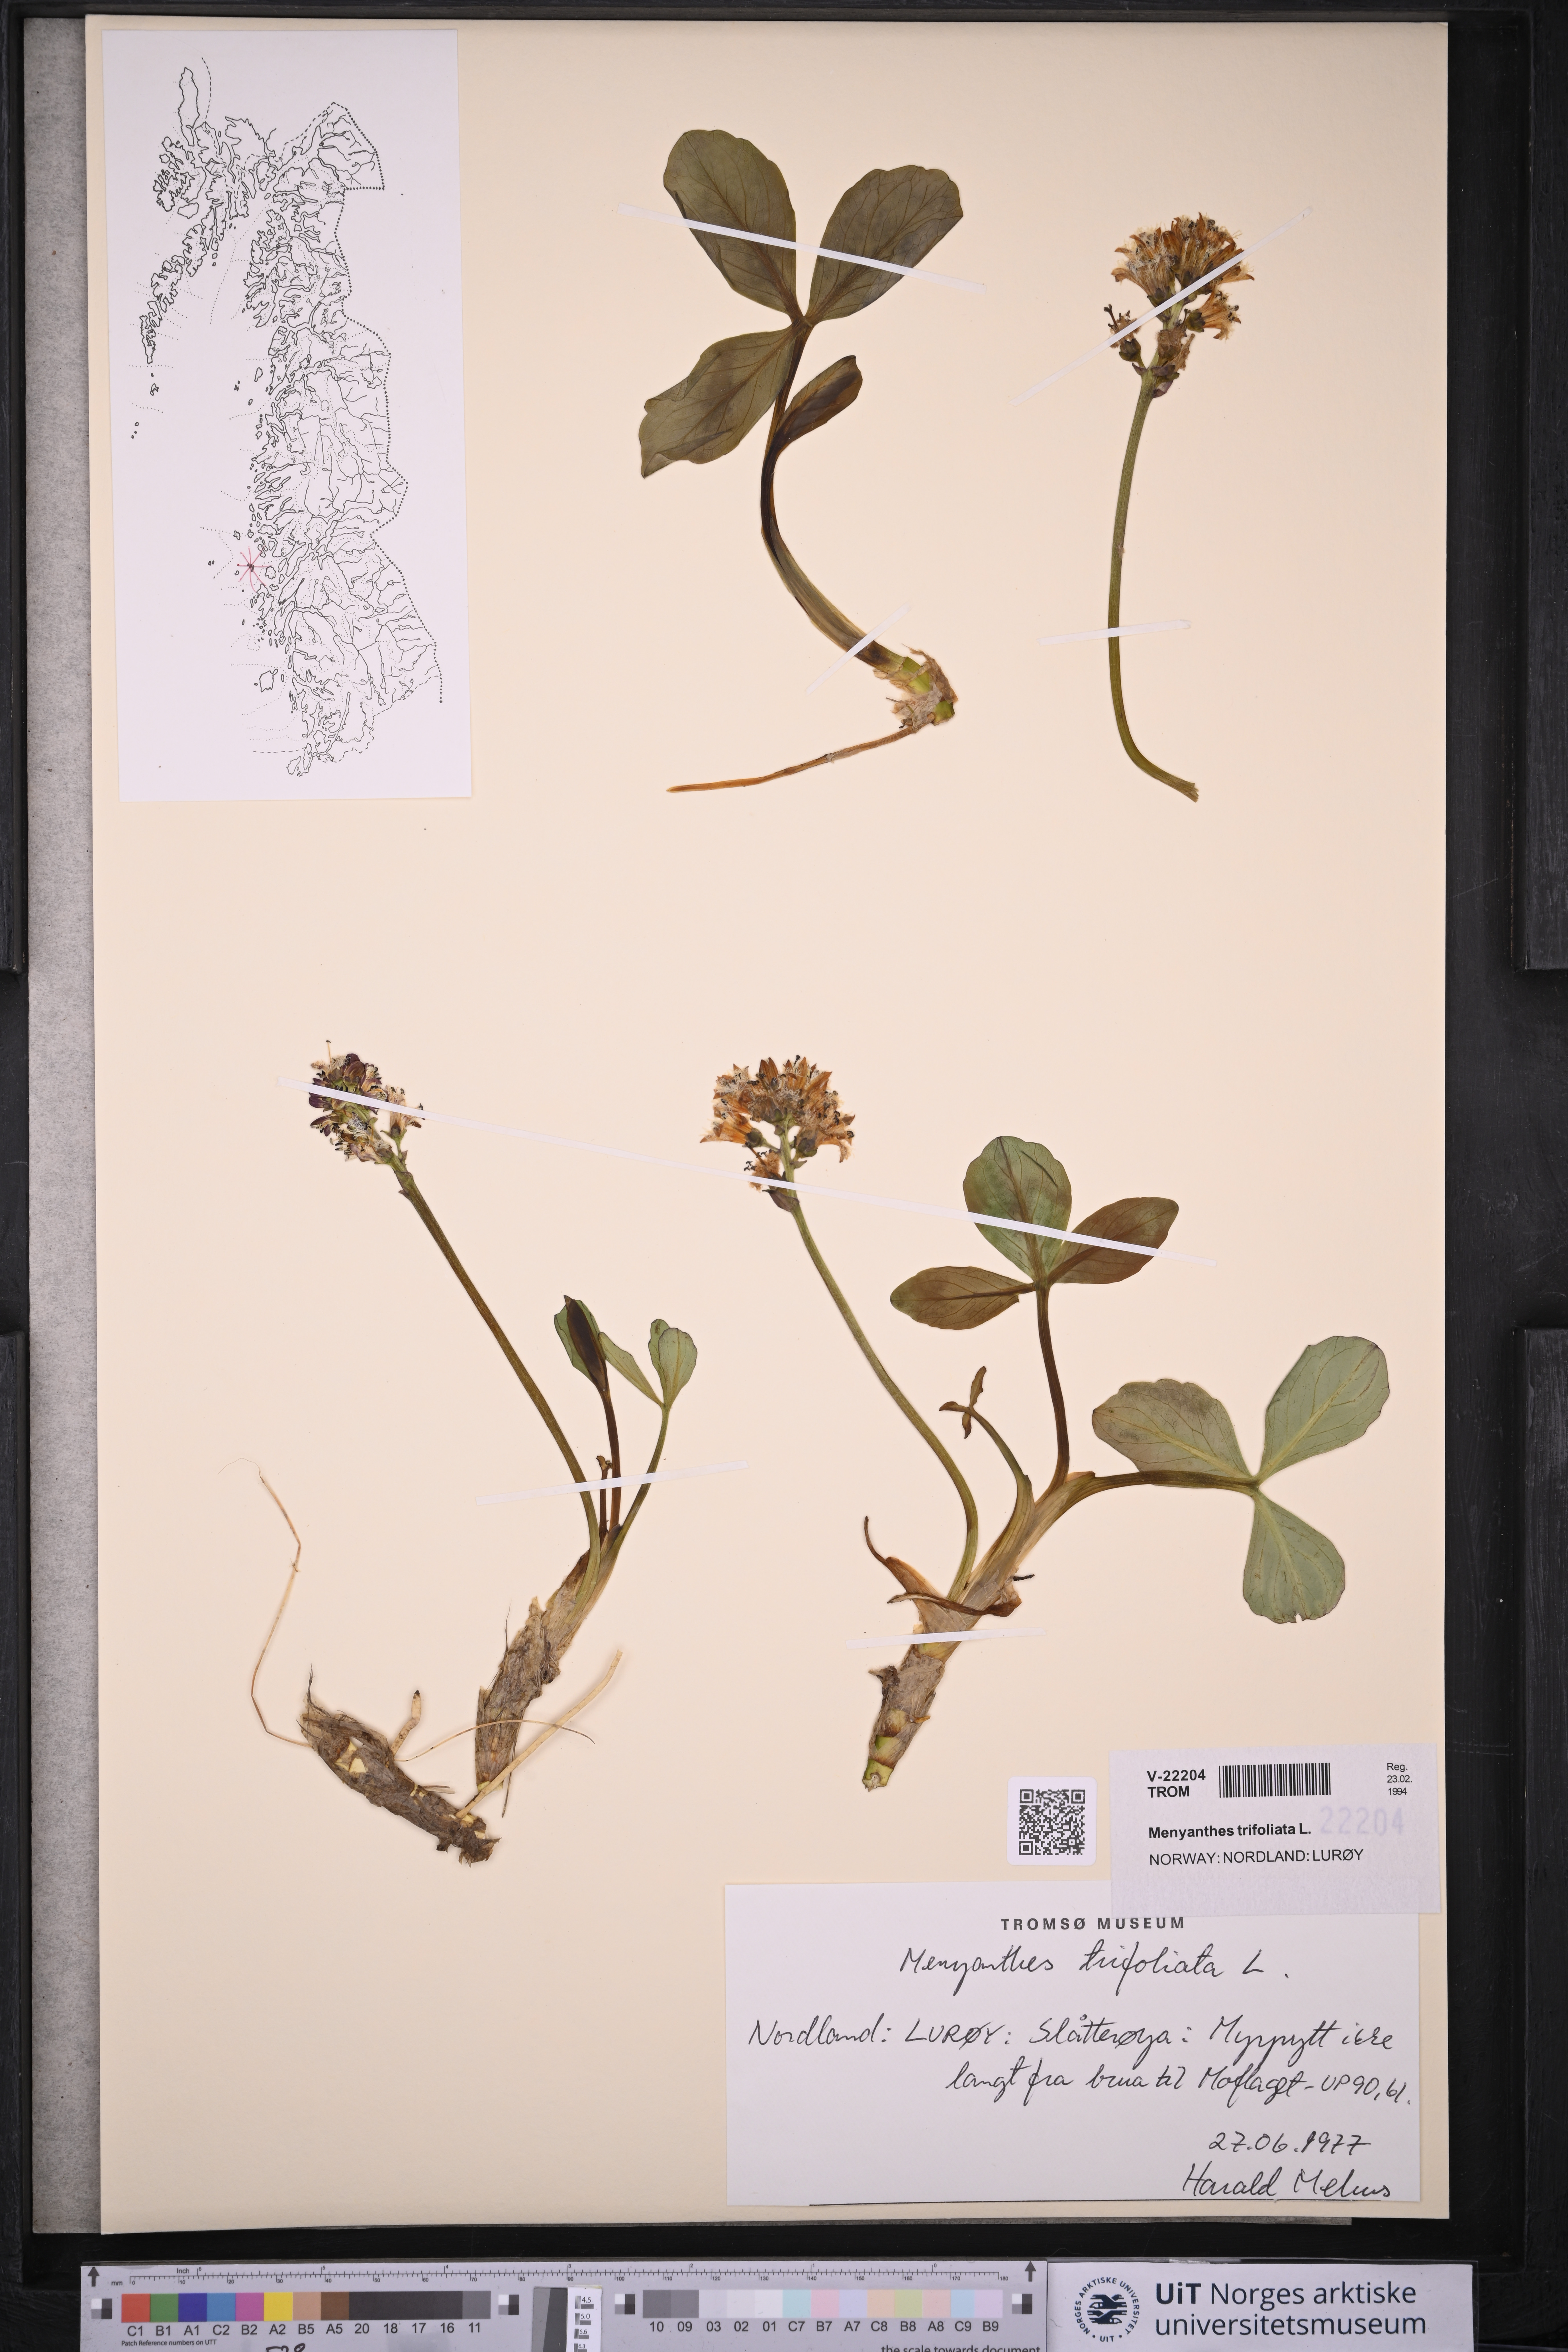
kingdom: Plantae
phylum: Tracheophyta
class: Magnoliopsida
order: Asterales
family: Menyanthaceae
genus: Menyanthes
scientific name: Menyanthes trifoliata
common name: Bogbean
